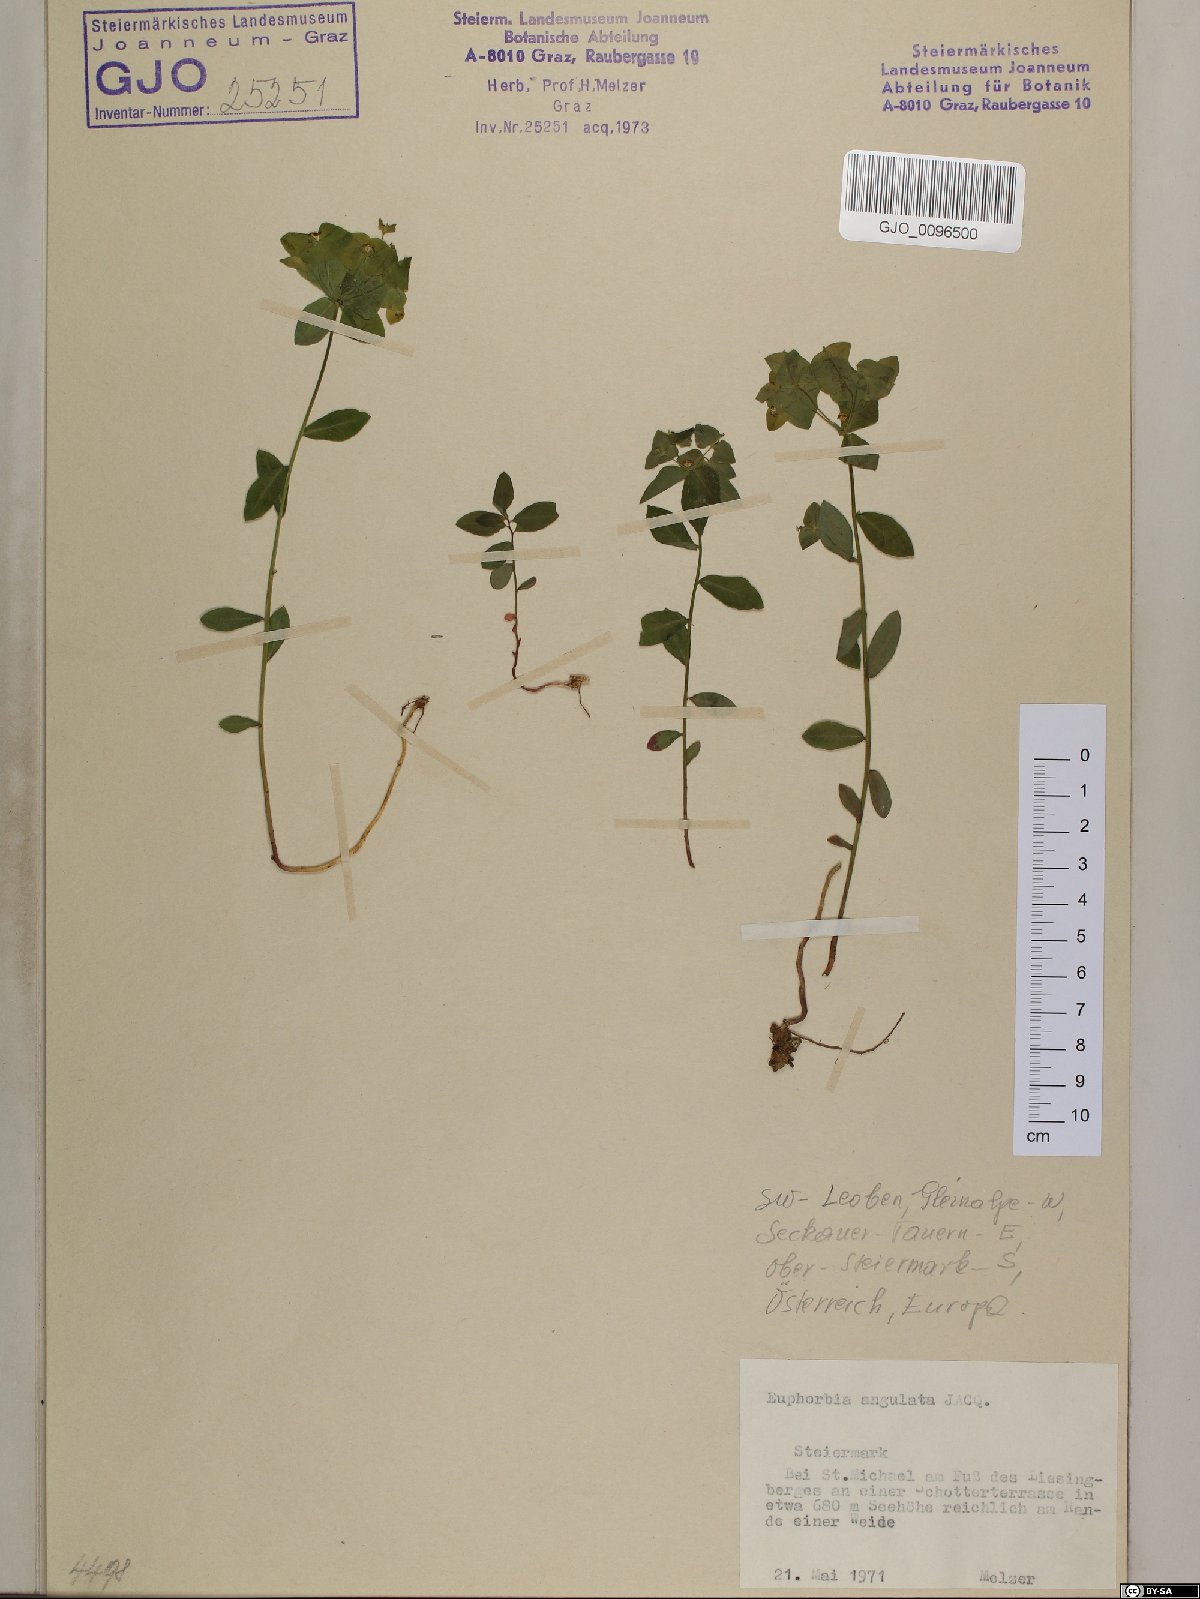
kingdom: Plantae
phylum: Tracheophyta
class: Magnoliopsida
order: Malpighiales
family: Euphorbiaceae
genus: Euphorbia
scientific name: Euphorbia angulata
